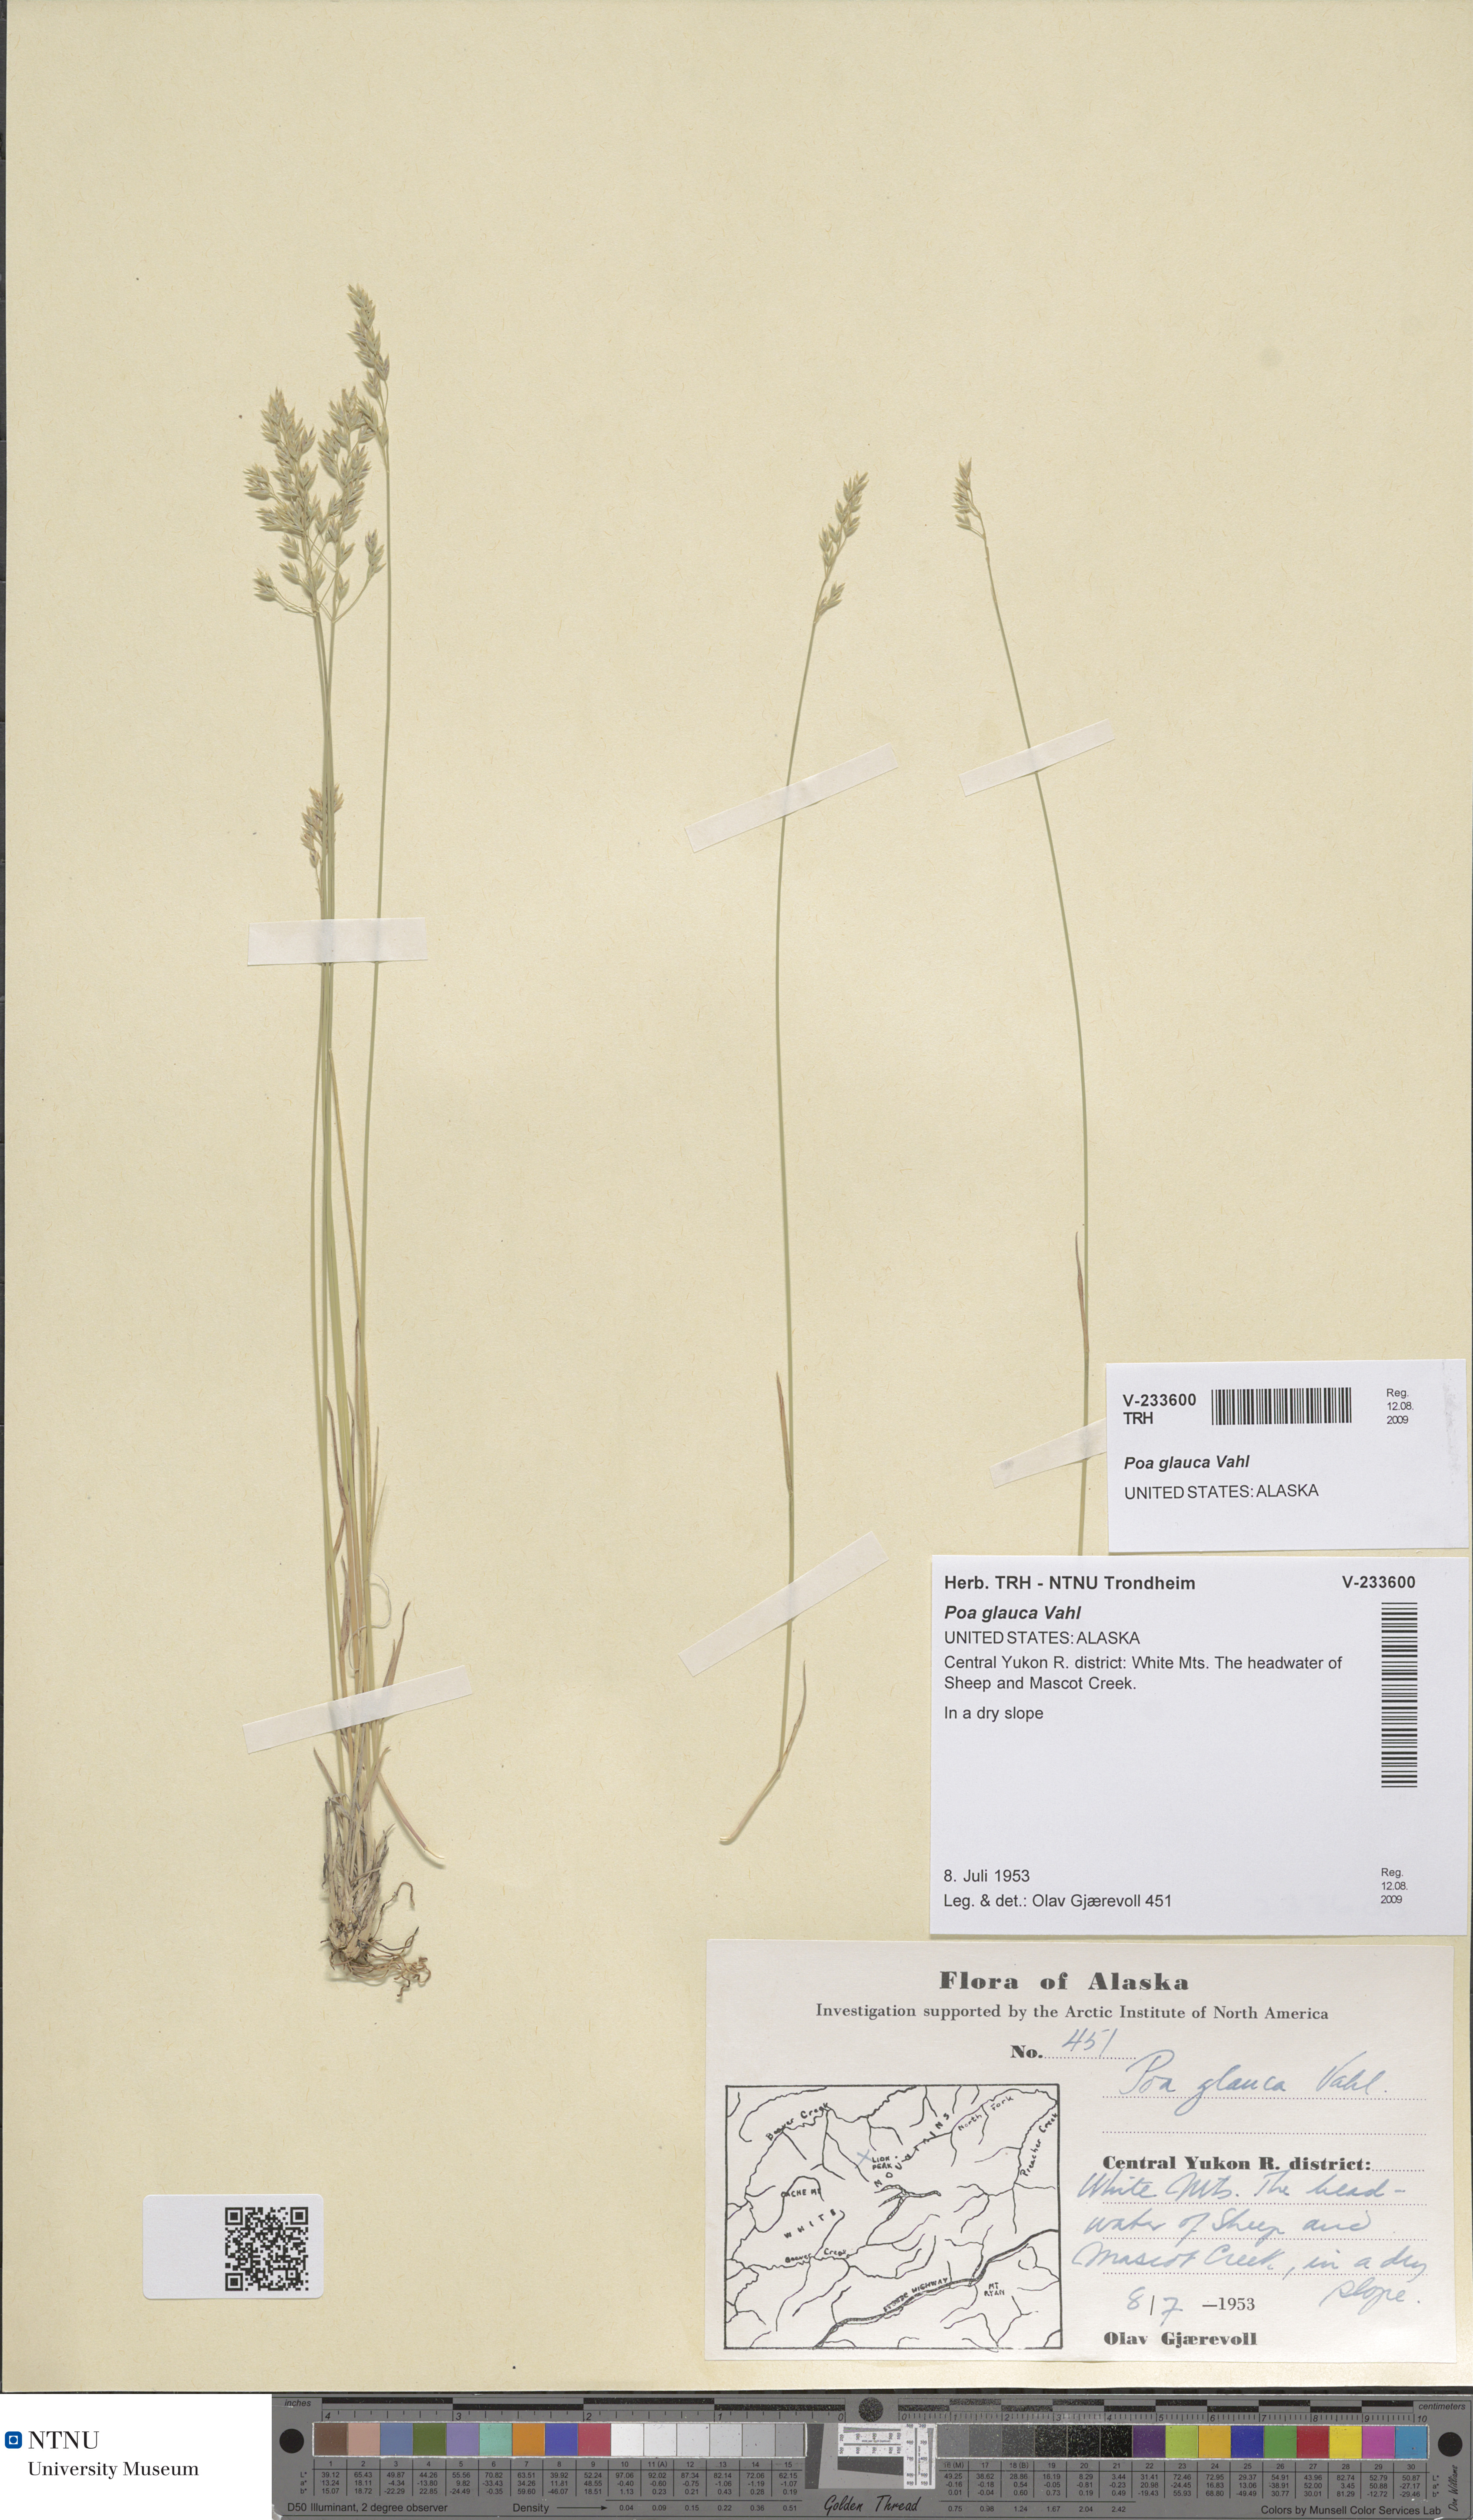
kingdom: Plantae
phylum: Tracheophyta
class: Liliopsida
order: Poales
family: Poaceae
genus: Poa
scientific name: Poa glauca
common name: Glaucous bluegrass
